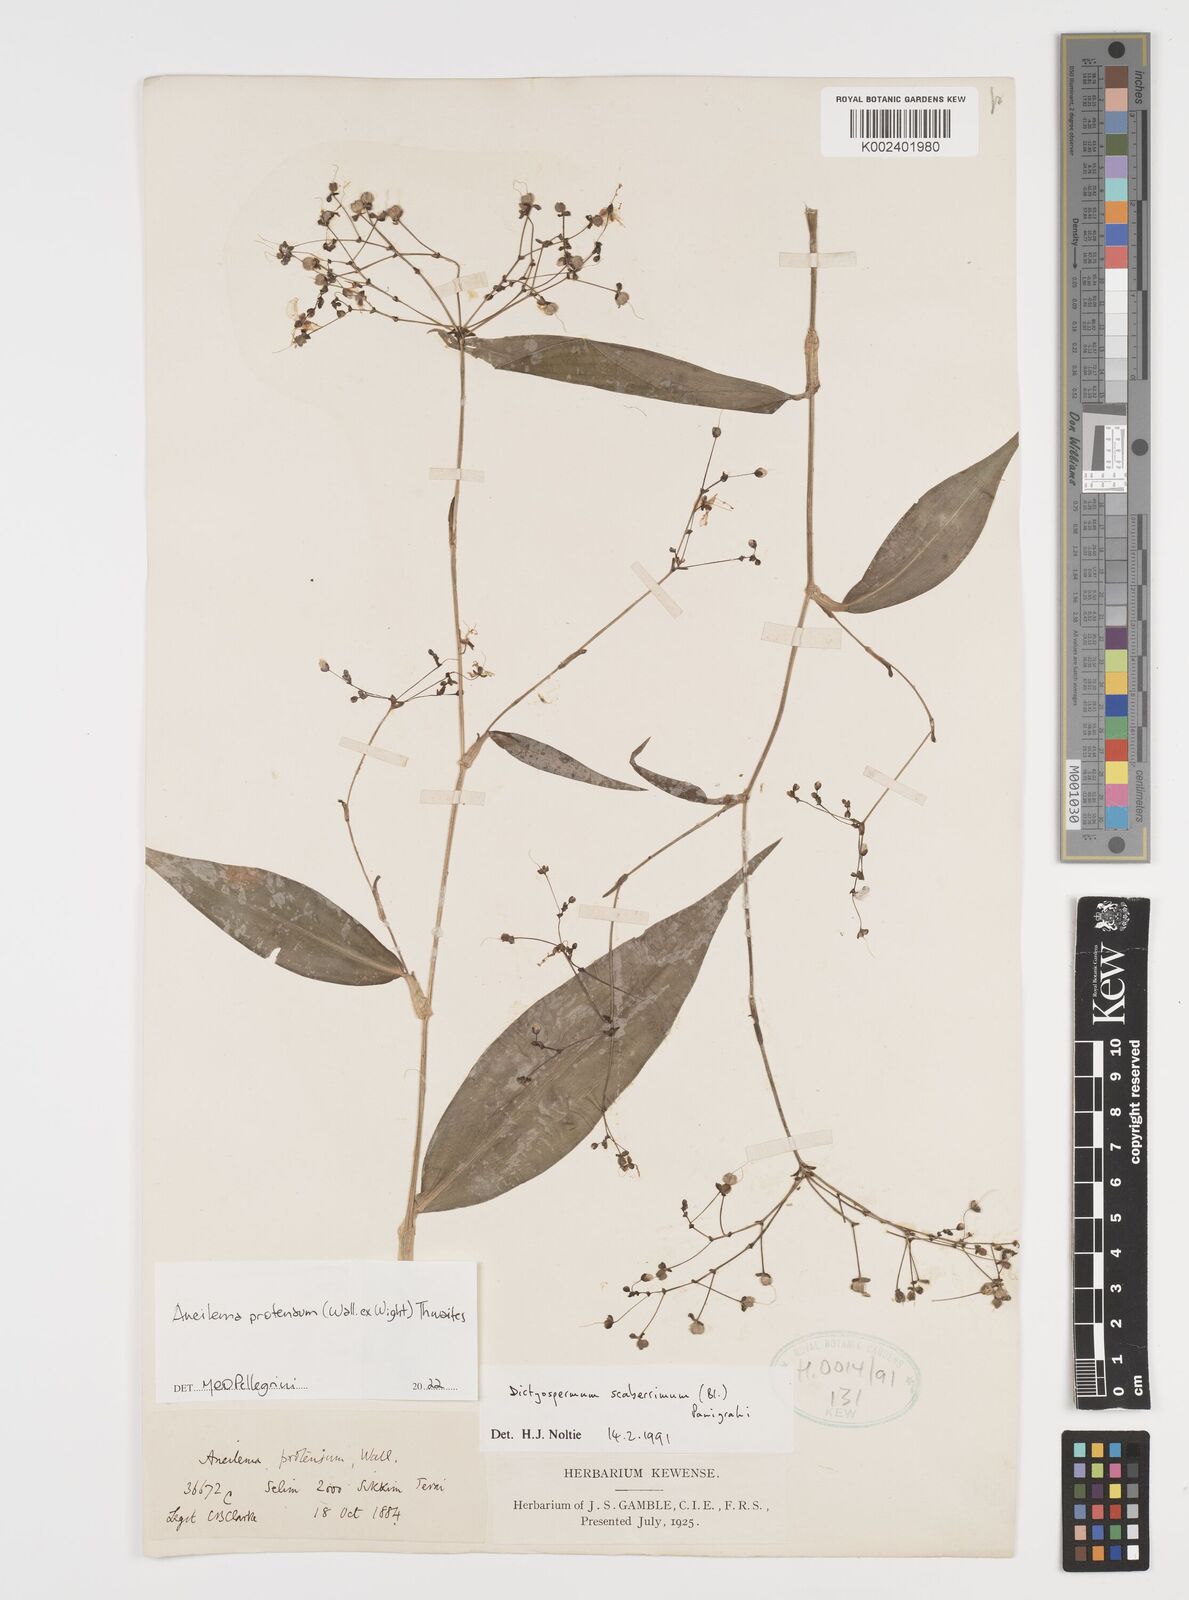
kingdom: Plantae
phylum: Tracheophyta
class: Liliopsida
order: Commelinales
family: Commelinaceae
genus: Rhopalephora
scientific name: Rhopalephora
